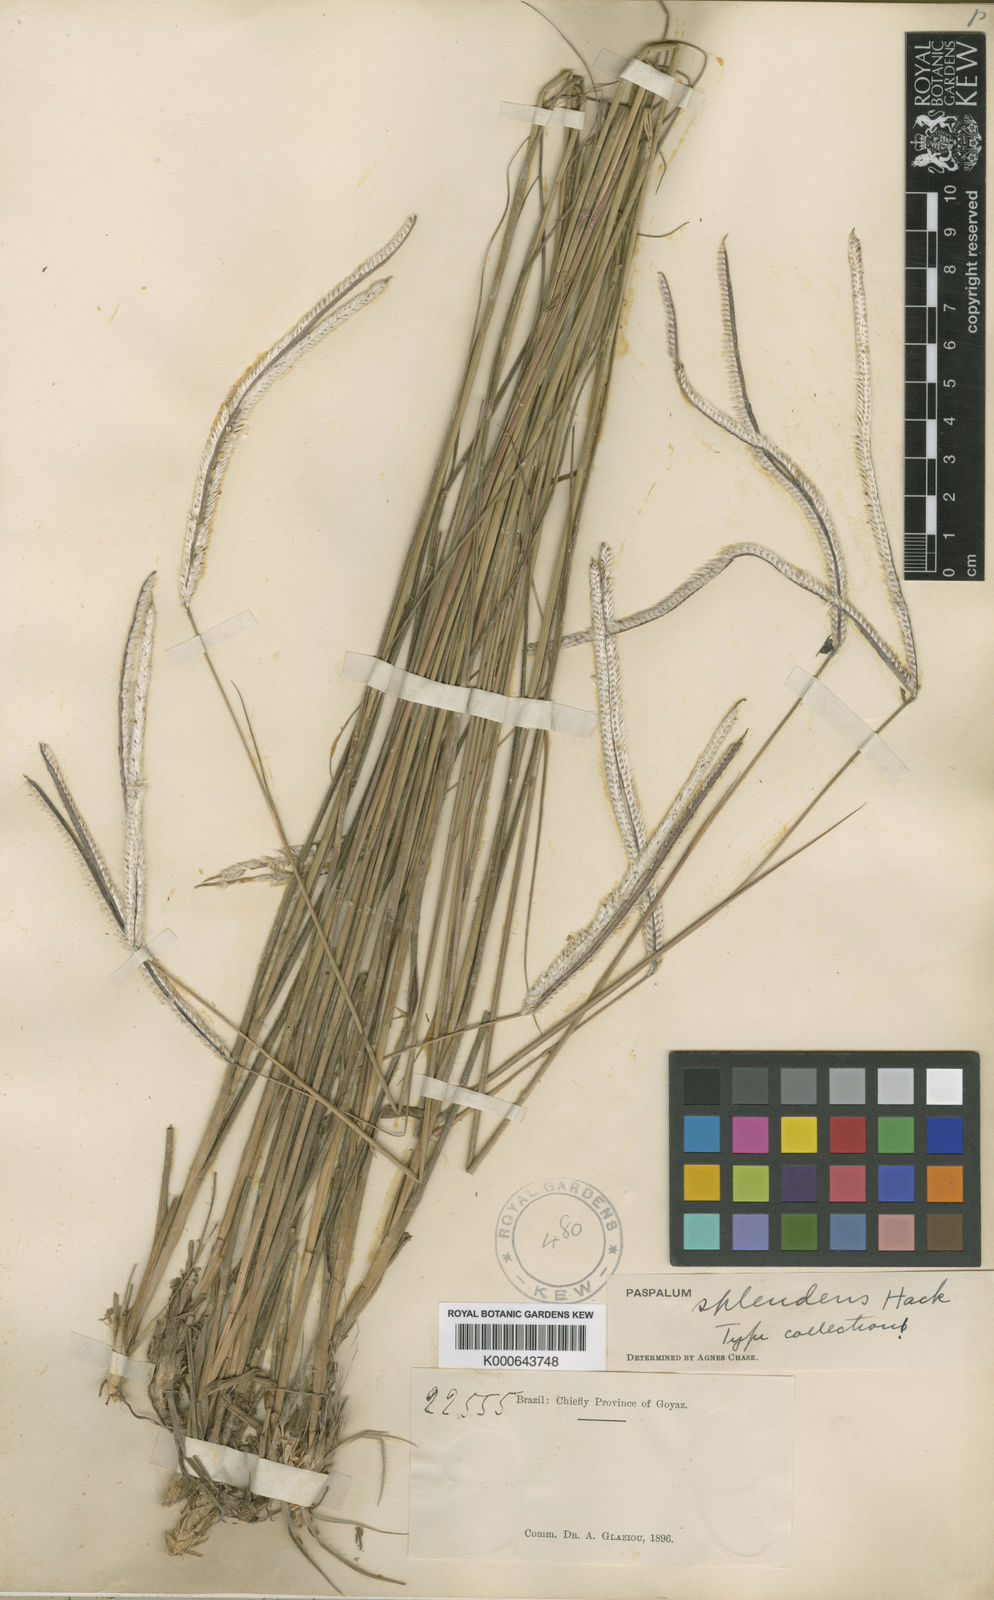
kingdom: Plantae
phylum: Tracheophyta
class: Liliopsida
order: Poales
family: Poaceae
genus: Paspalum
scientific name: Paspalum eucomum
